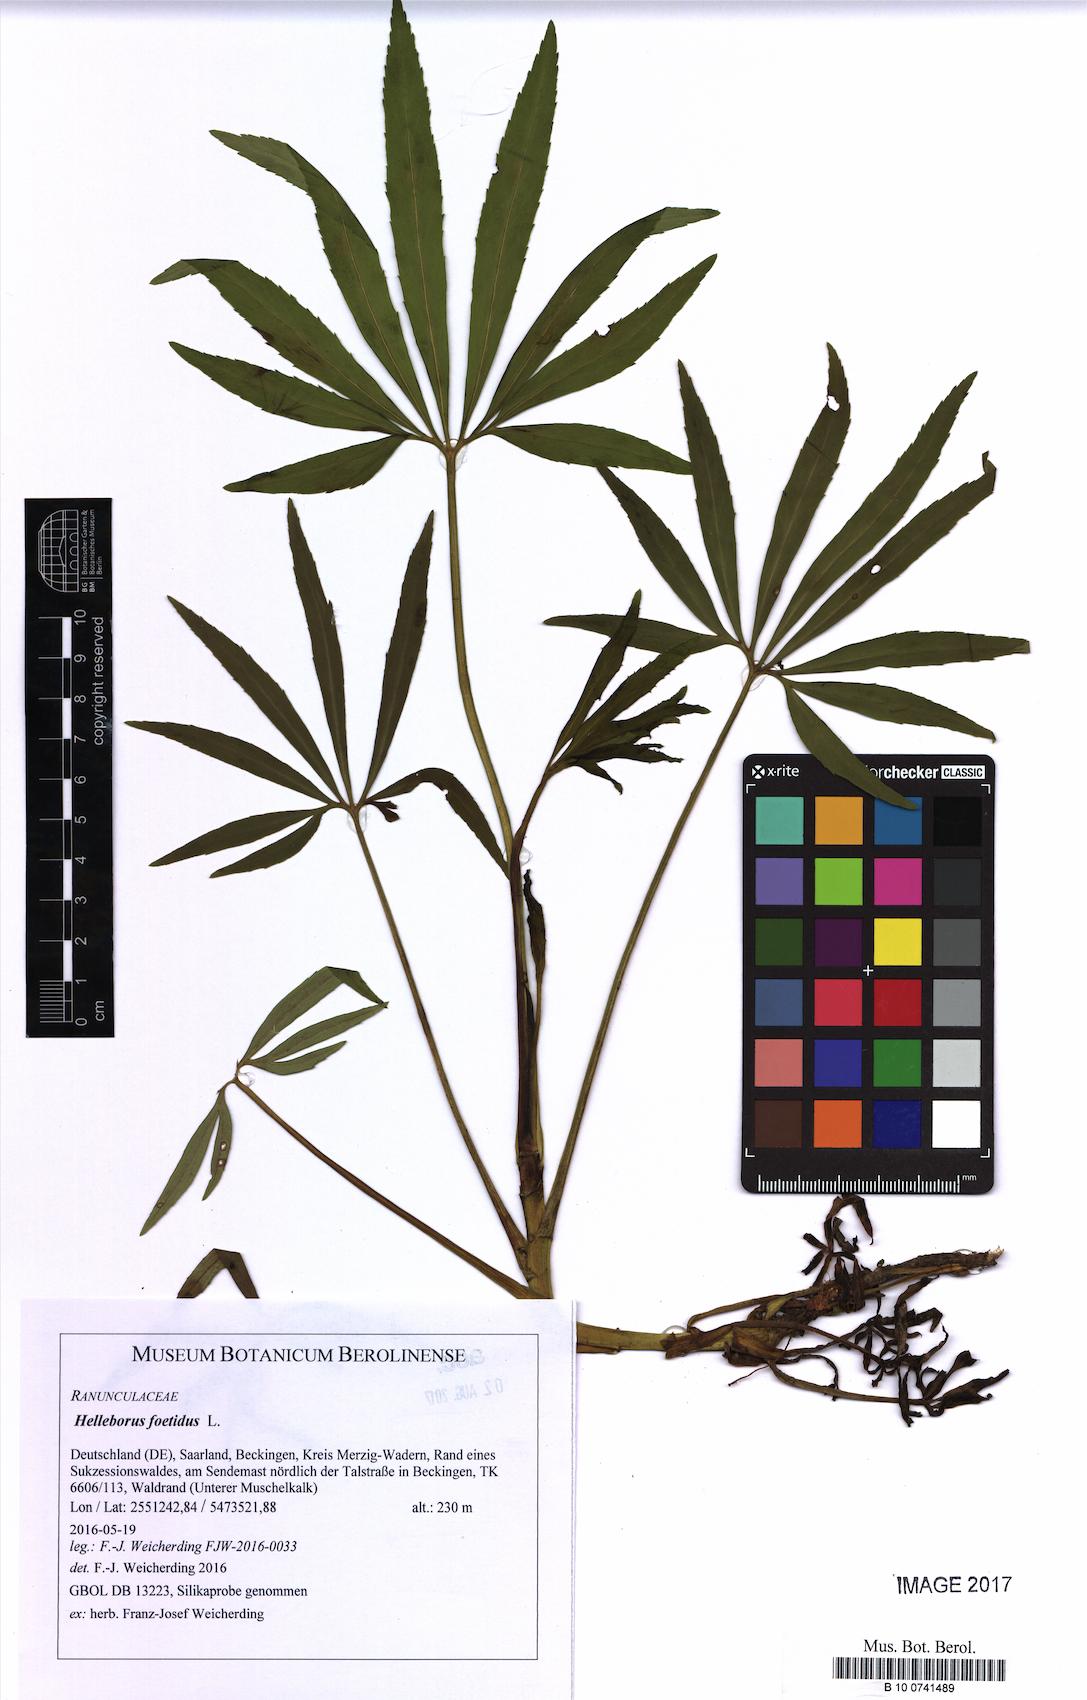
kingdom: Plantae
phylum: Tracheophyta
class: Magnoliopsida
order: Ranunculales
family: Ranunculaceae
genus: Helleborus
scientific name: Helleborus foetidus
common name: Stinking hellebore
